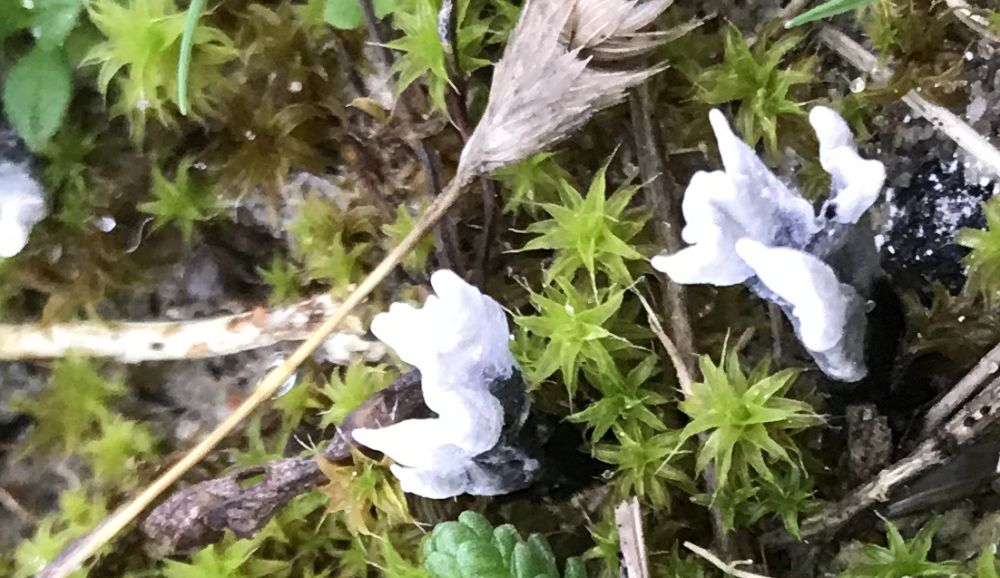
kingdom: Fungi
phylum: Ascomycota
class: Sordariomycetes
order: Xylariales
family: Xylariaceae
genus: Xylaria
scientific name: Xylaria hypoxylon
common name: grenet stødsvamp
